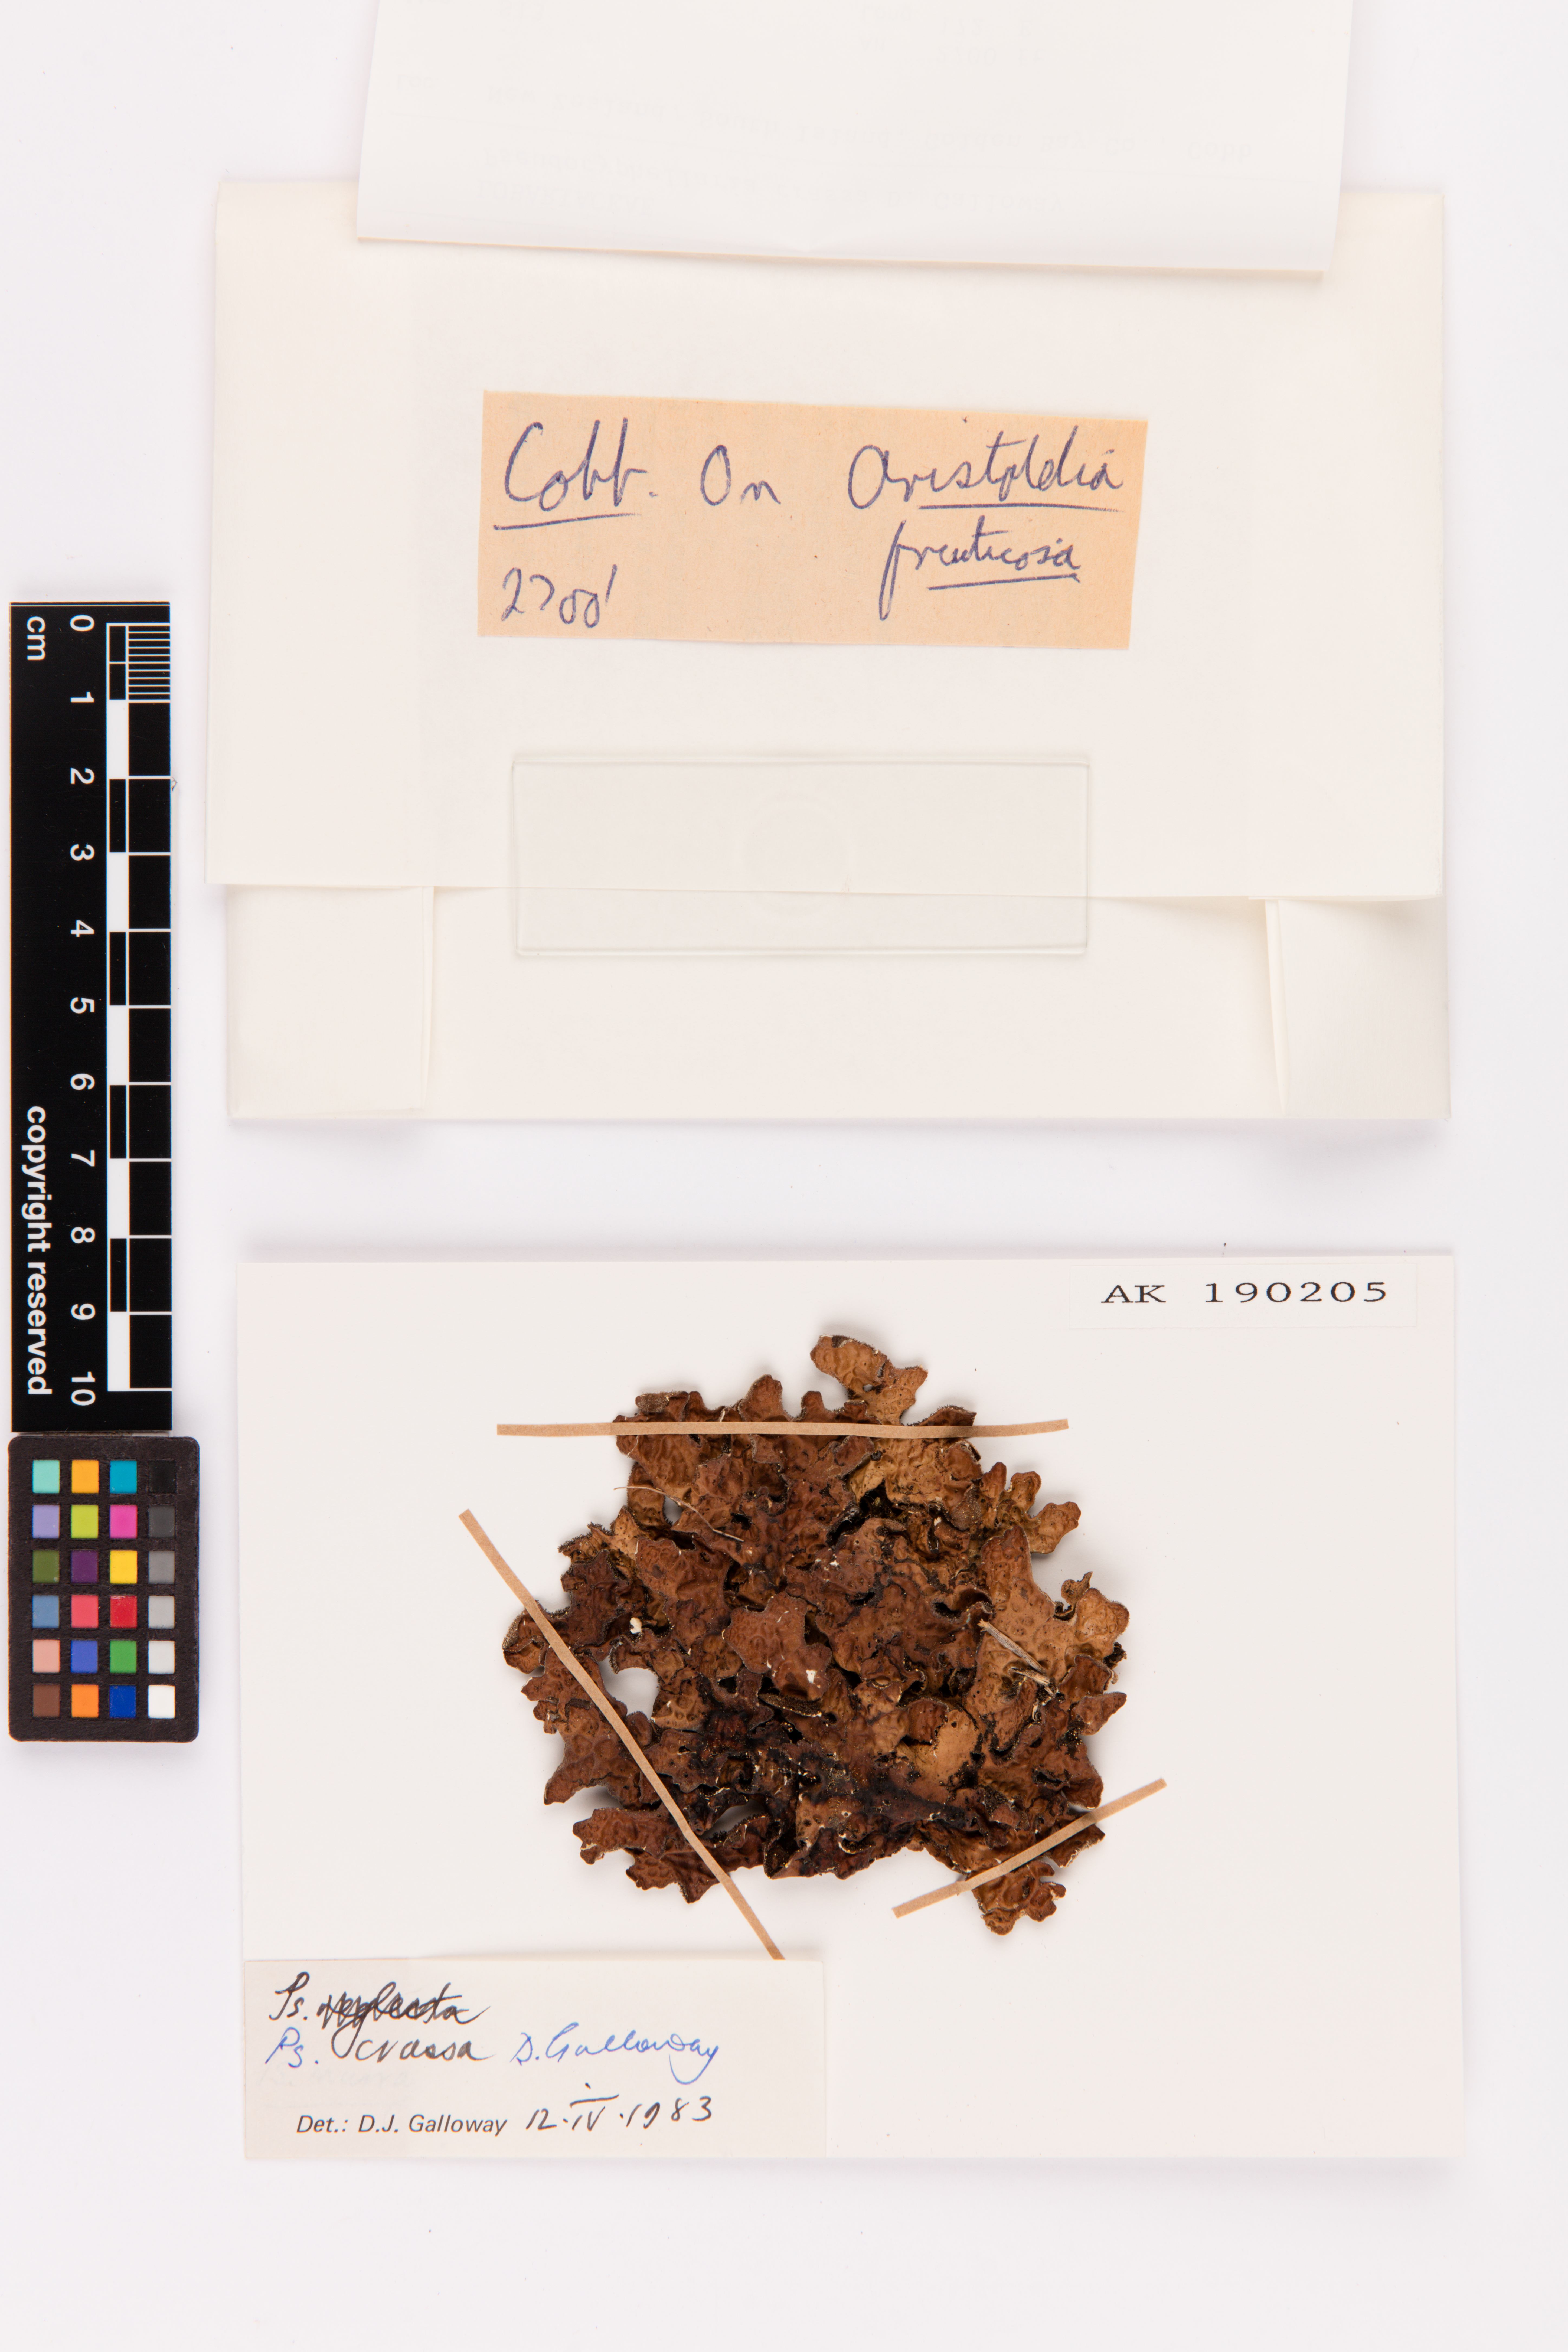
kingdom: Fungi
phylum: Ascomycota
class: Lecanoromycetes
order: Peltigerales
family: Lobariaceae
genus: Pseudocyphellaria
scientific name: Pseudocyphellaria crassa
